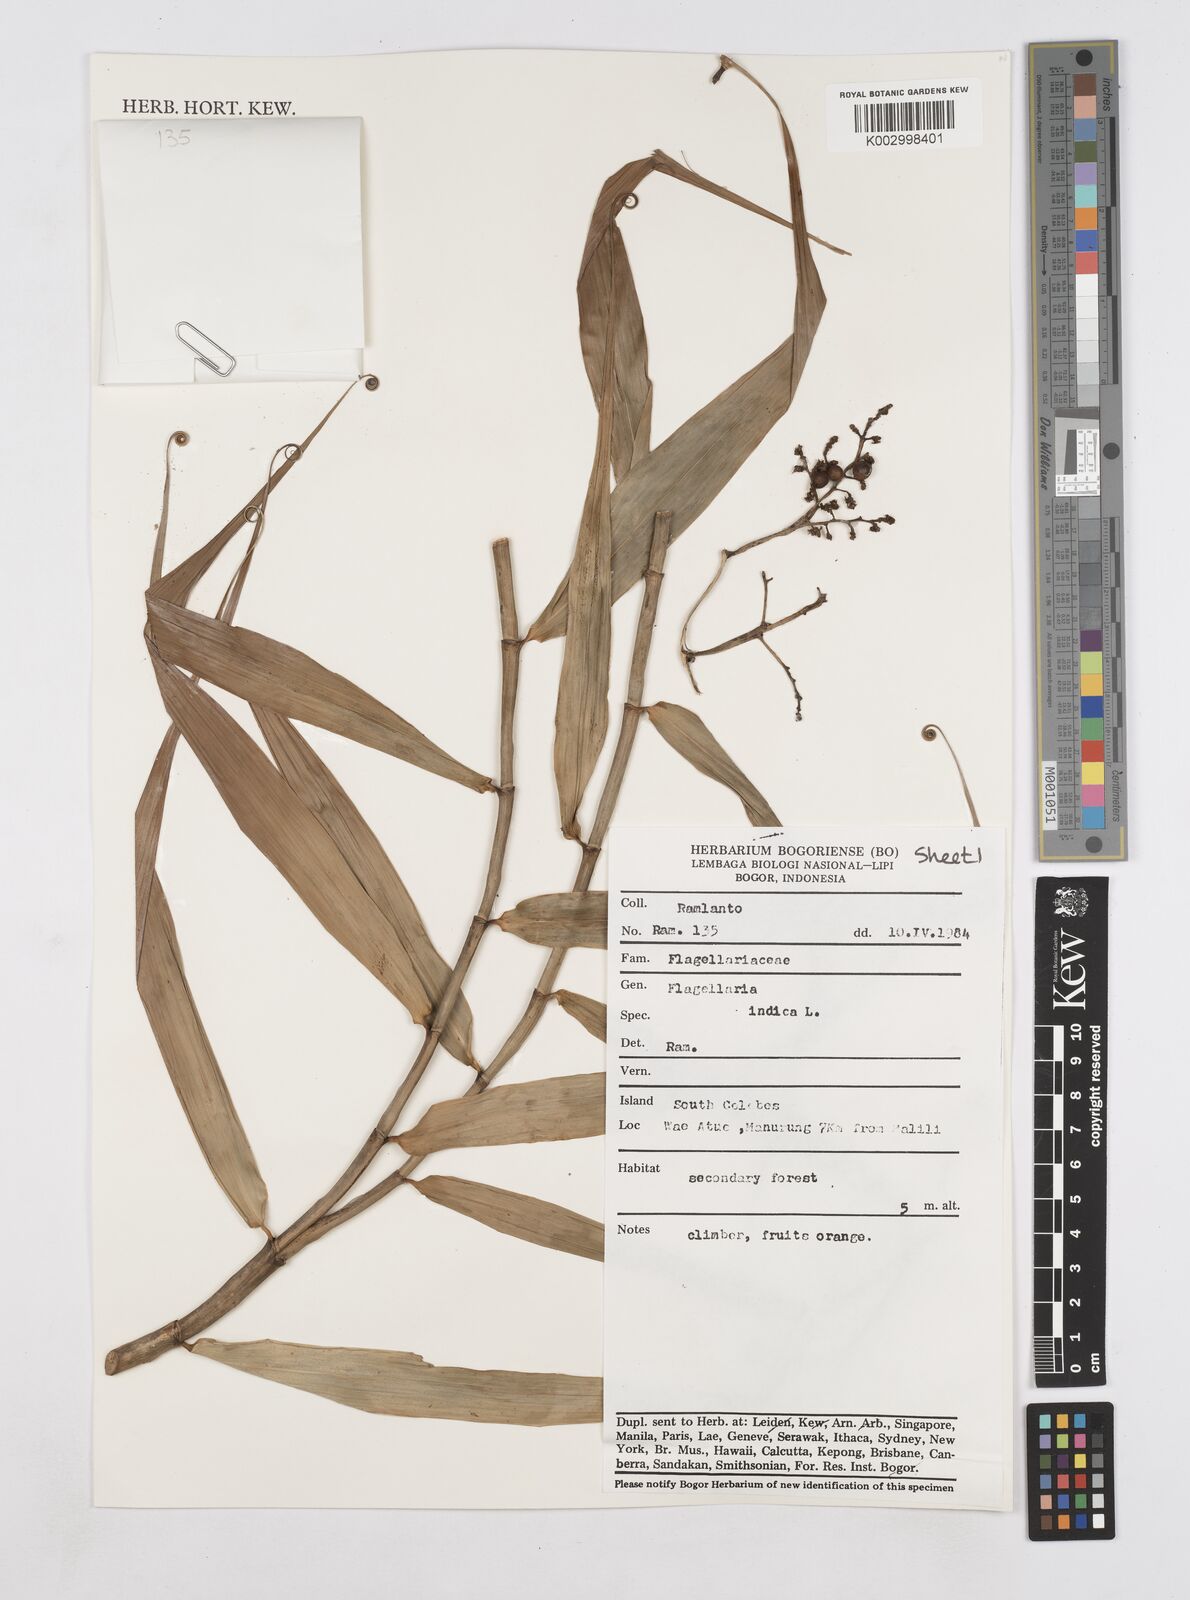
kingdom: Plantae
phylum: Tracheophyta
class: Liliopsida
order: Poales
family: Flagellariaceae
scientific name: Flagellariaceae
